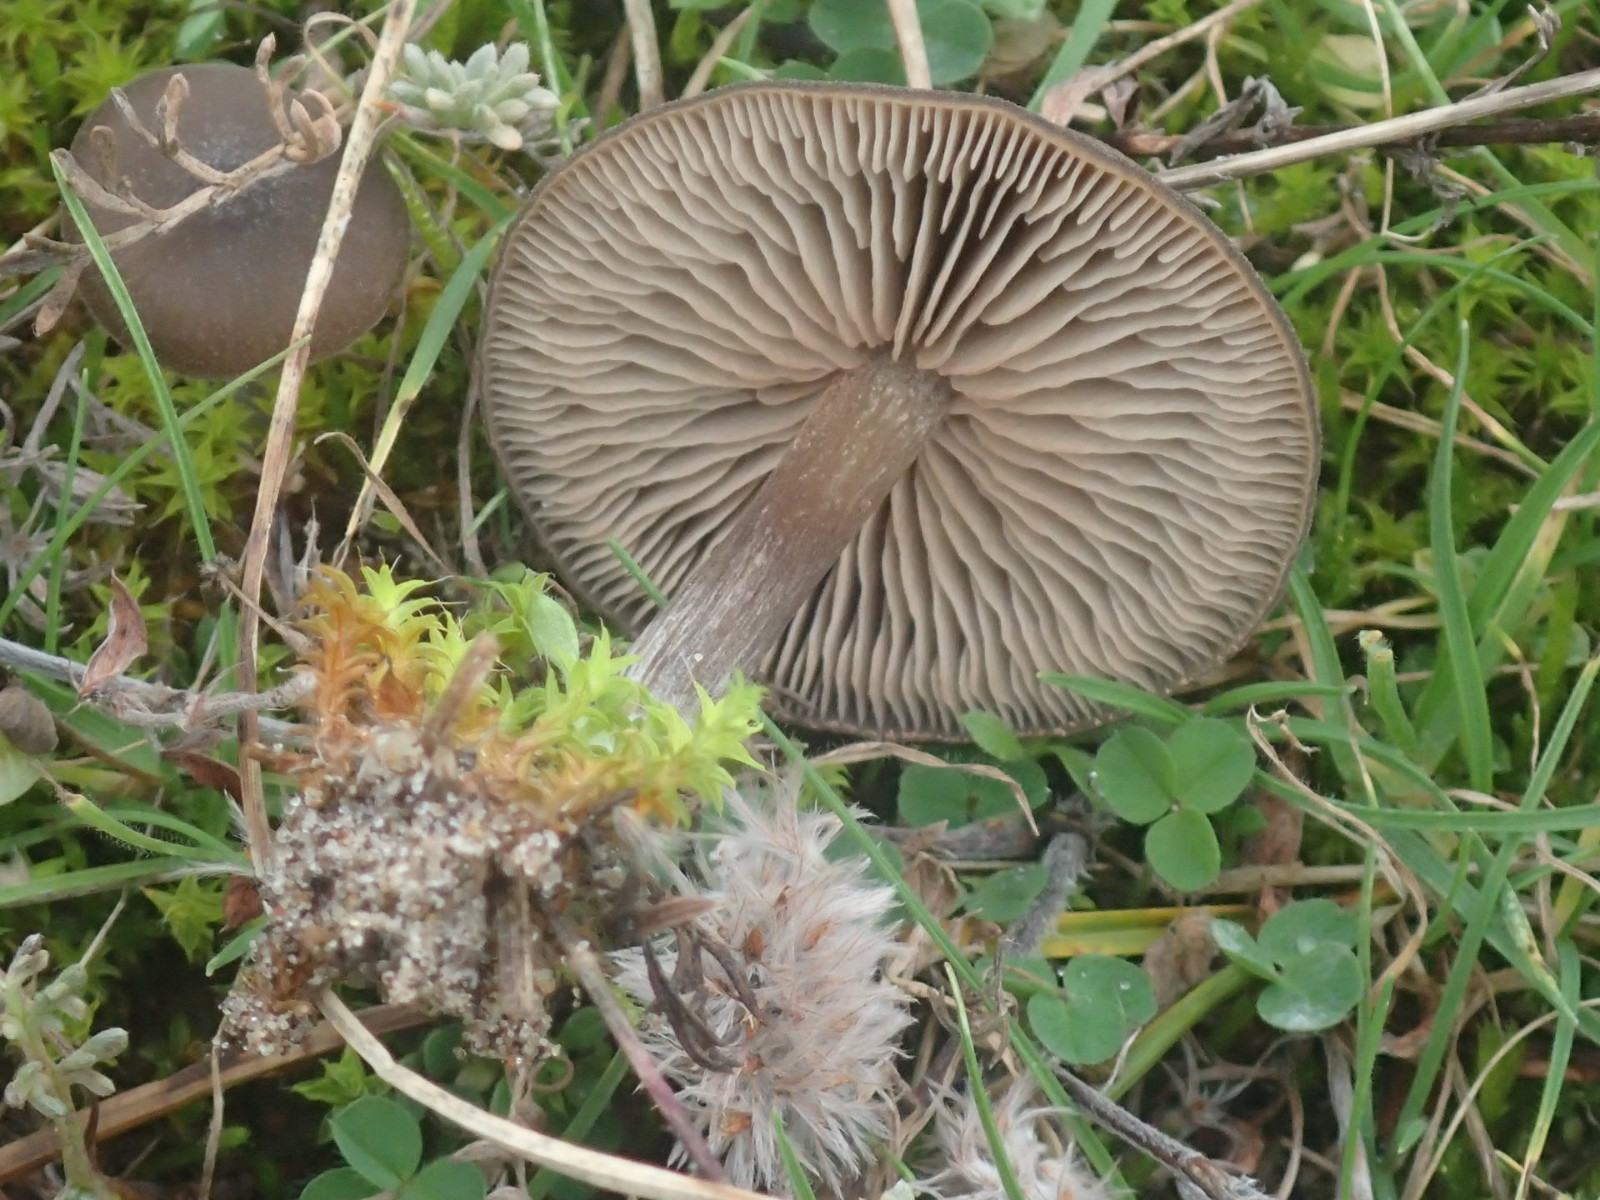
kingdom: Fungi
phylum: Basidiomycota
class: Agaricomycetes
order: Agaricales
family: Entolomataceae
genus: Entoloma
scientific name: Entoloma
